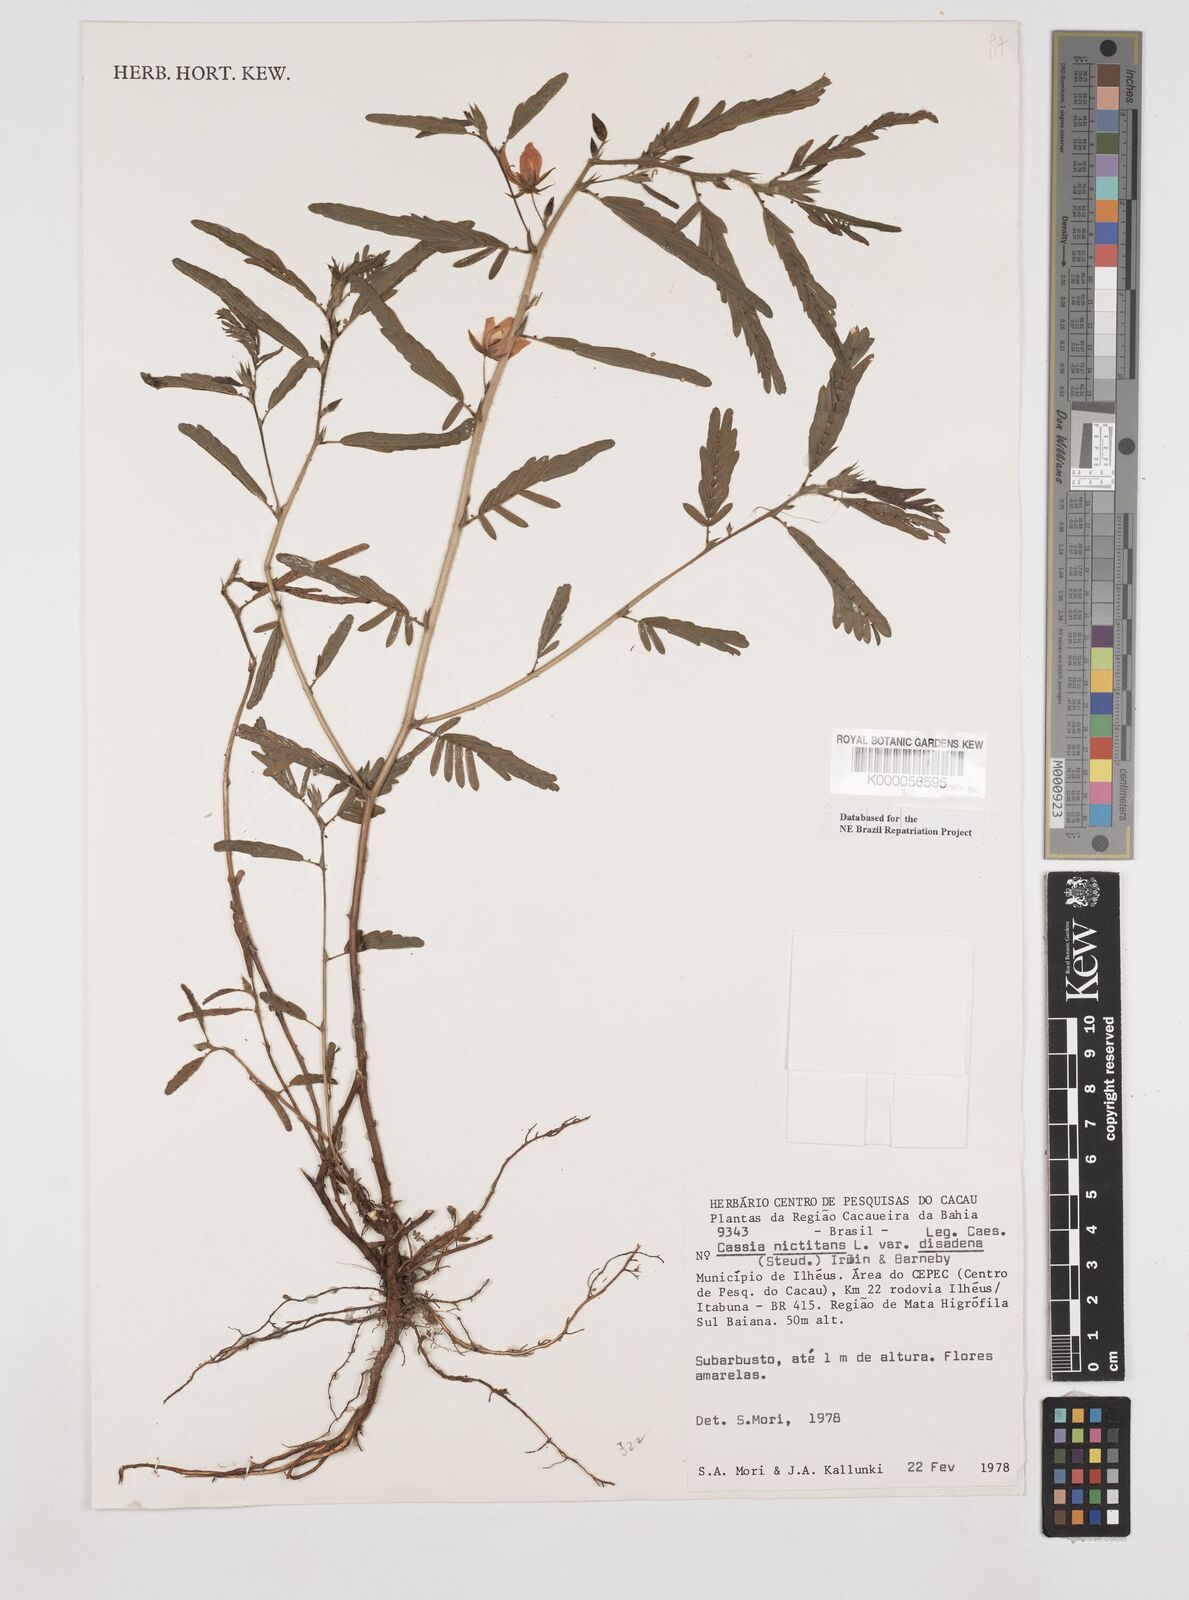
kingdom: Plantae
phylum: Tracheophyta
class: Magnoliopsida
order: Fabales
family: Fabaceae
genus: Chamaecrista
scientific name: Chamaecrista nictitans
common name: Sensitive cassia
